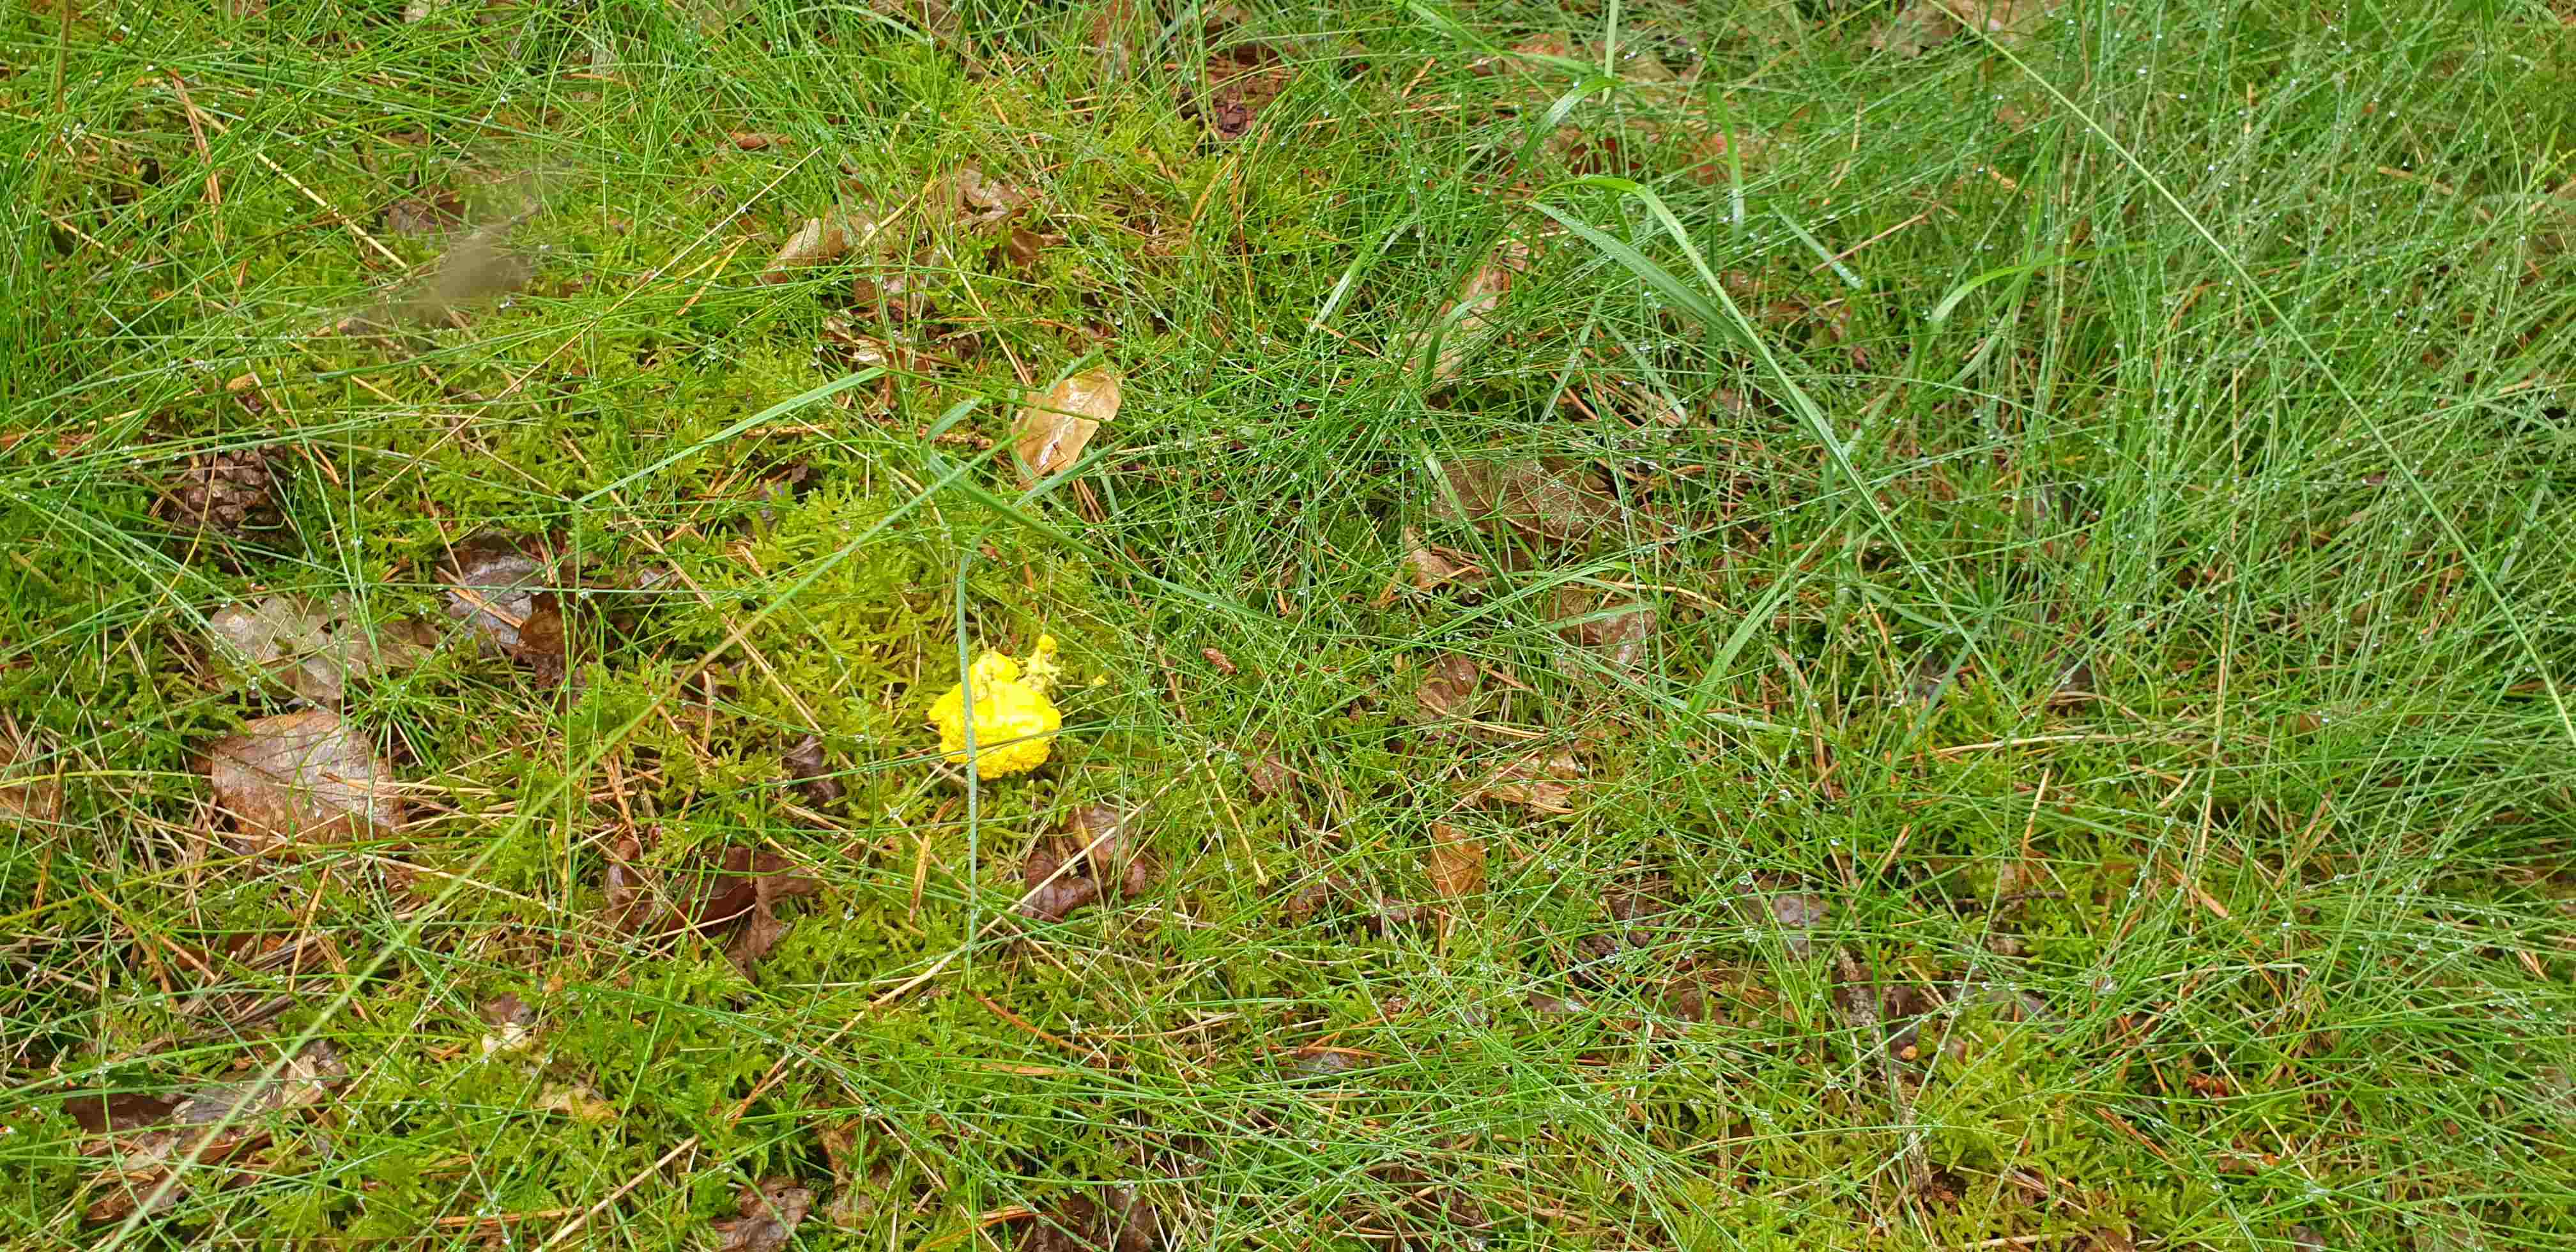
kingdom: Protozoa
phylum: Mycetozoa
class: Myxomycetes
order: Physarales
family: Physaraceae
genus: Fuligo
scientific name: Fuligo septica
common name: gul troldsmør
